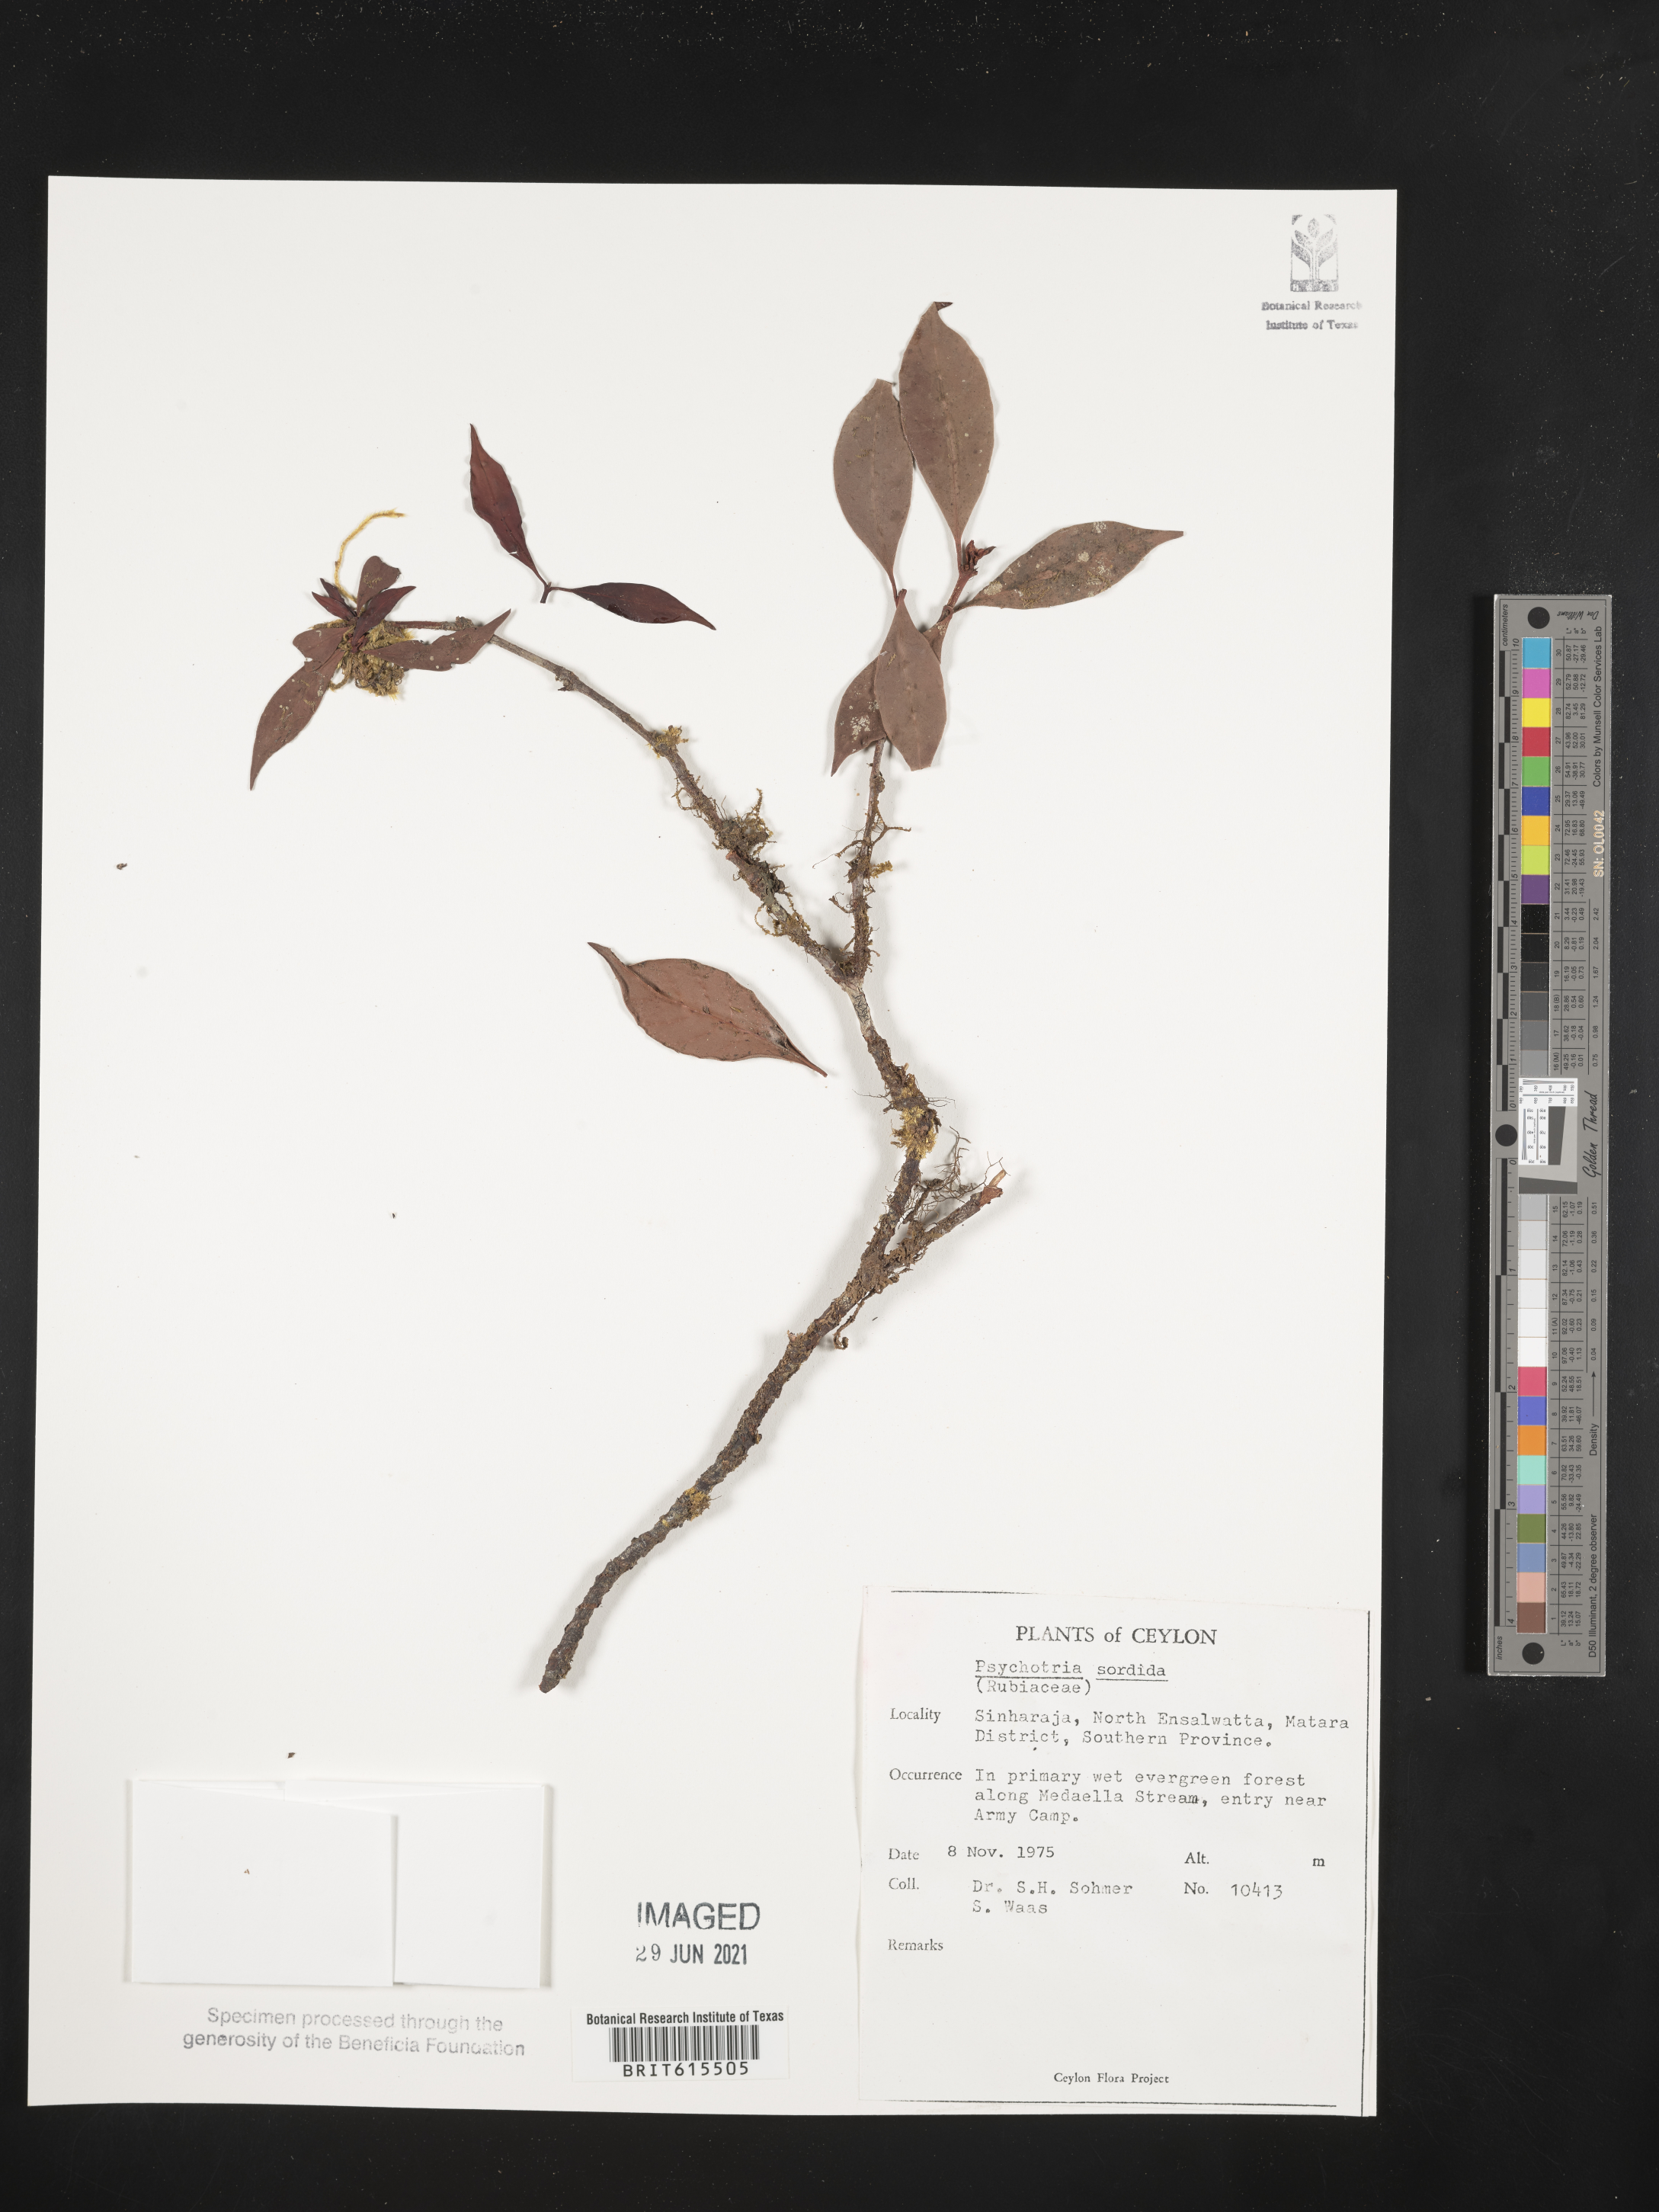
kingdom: Plantae
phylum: Tracheophyta
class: Magnoliopsida
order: Gentianales
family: Rubiaceae
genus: Psychotria
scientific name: Psychotria sordida
